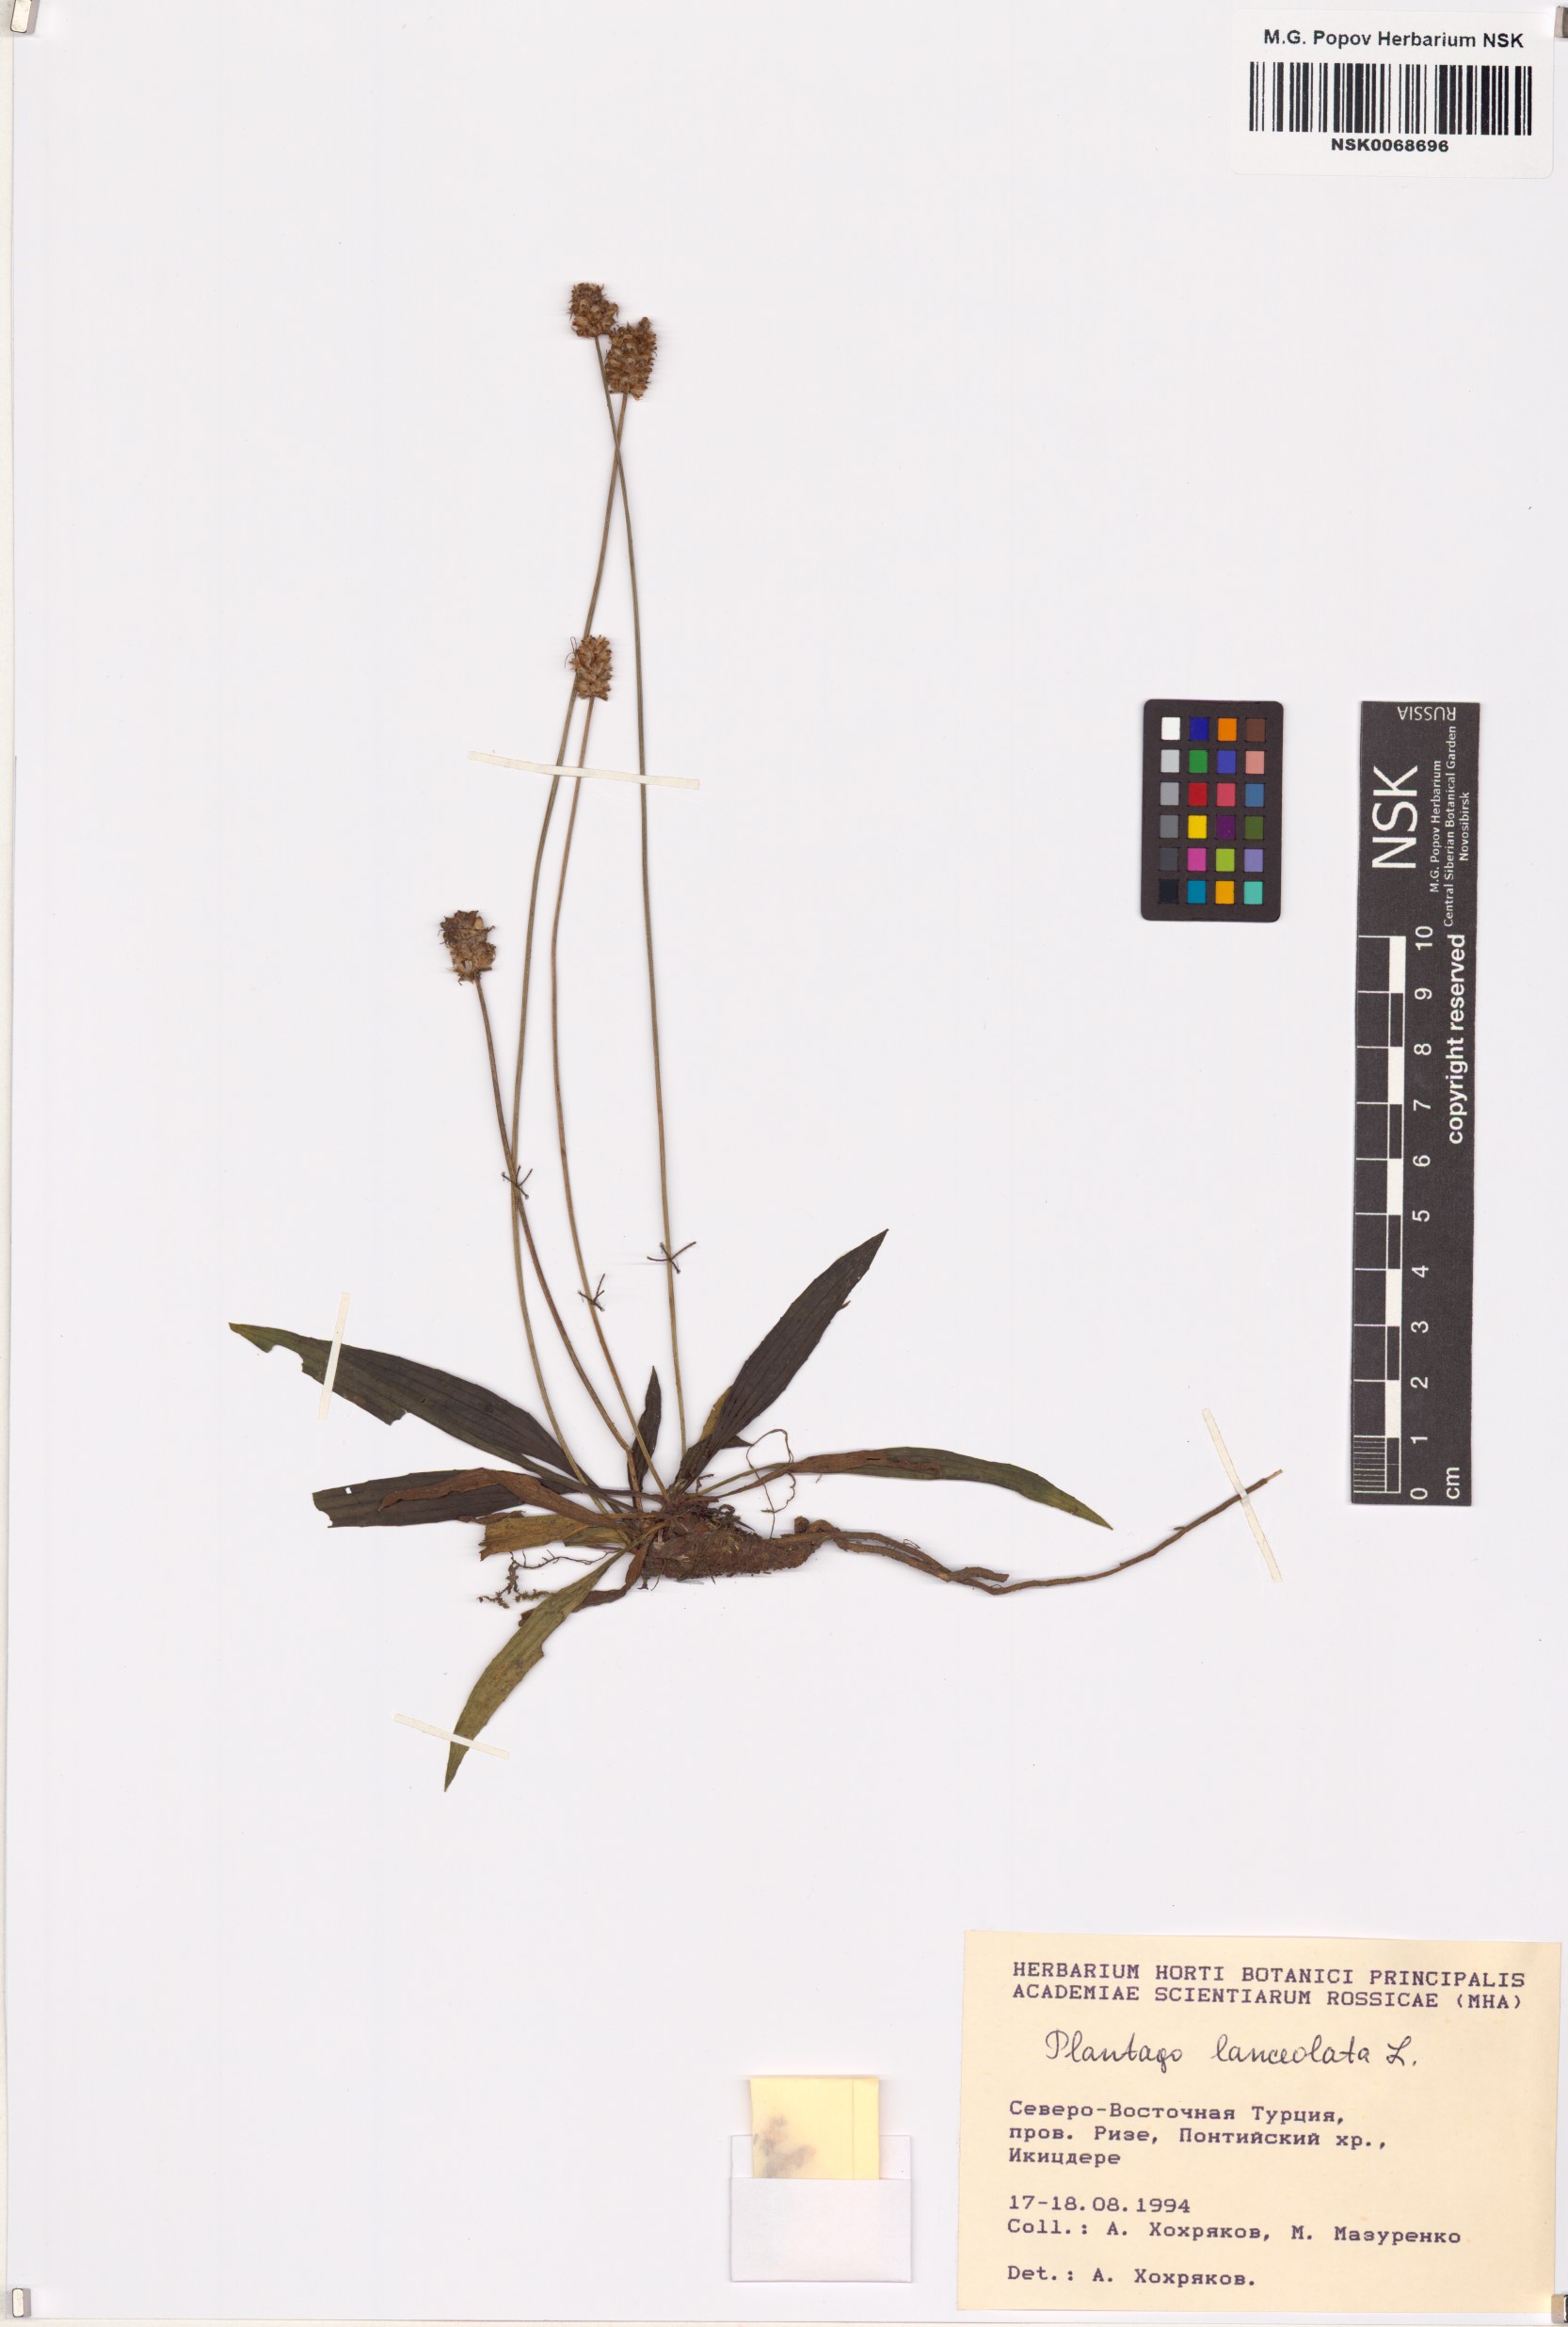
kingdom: Plantae
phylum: Tracheophyta
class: Magnoliopsida
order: Lamiales
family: Plantaginaceae
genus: Plantago
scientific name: Plantago lanceolata
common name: Ribwort plantain
